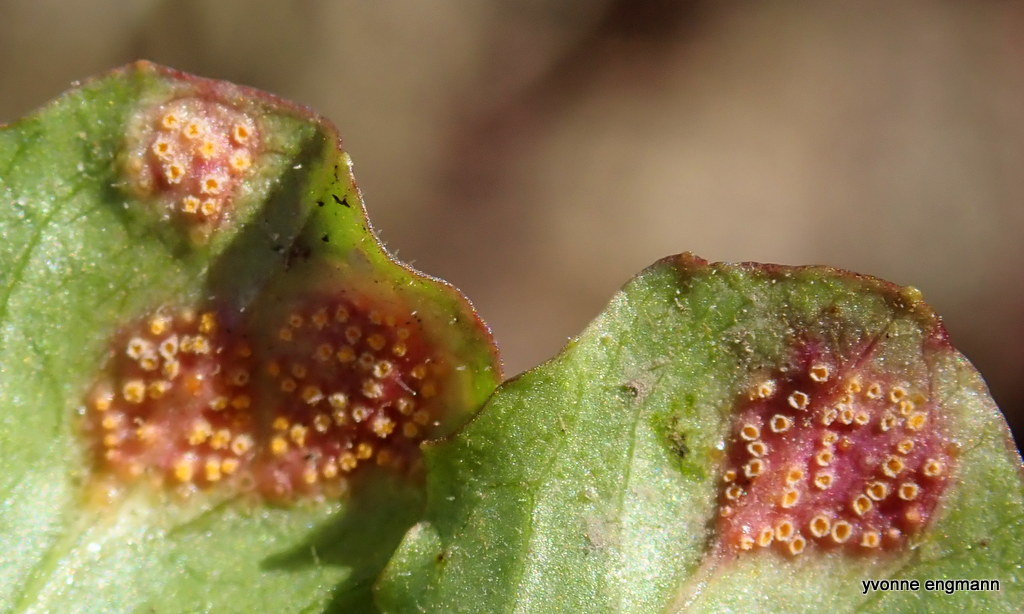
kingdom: Fungi
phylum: Basidiomycota
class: Pucciniomycetes
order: Pucciniales
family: Pucciniaceae
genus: Puccinia
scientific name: Puccinia lapsanae
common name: Nipplewort rust
